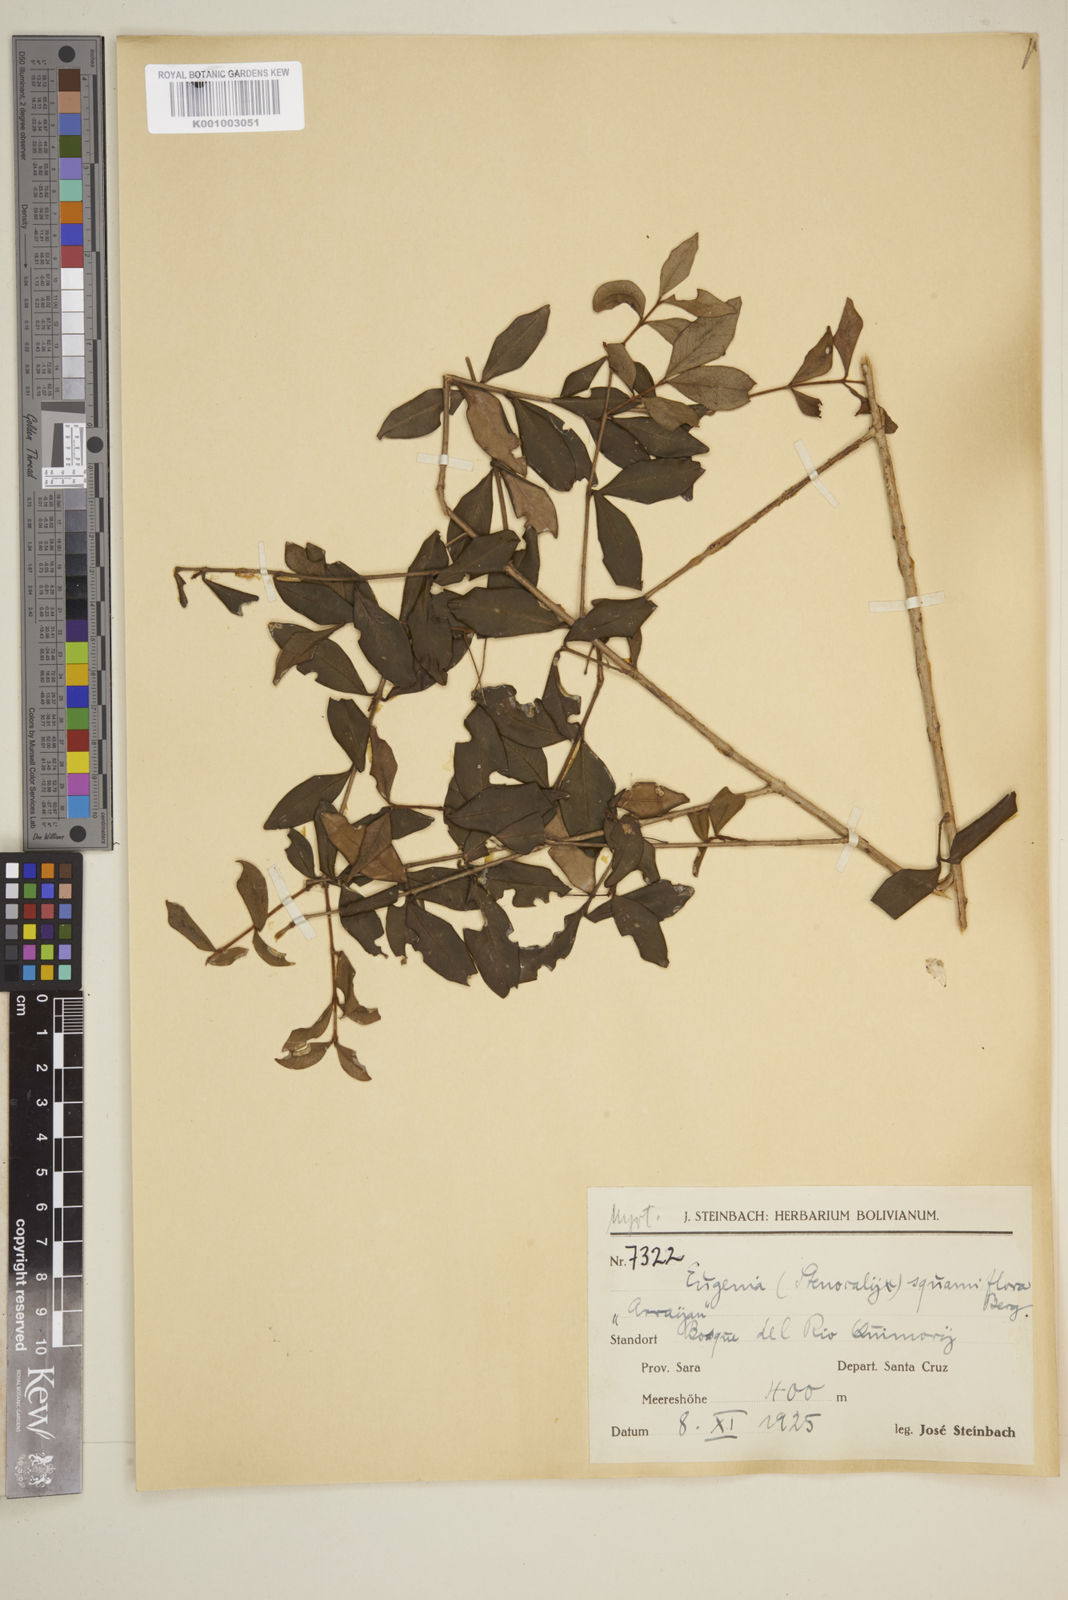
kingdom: Plantae
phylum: Tracheophyta
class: Magnoliopsida
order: Myrtales
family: Myrtaceae
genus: Eugenia
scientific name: Eugenia squamiflora
